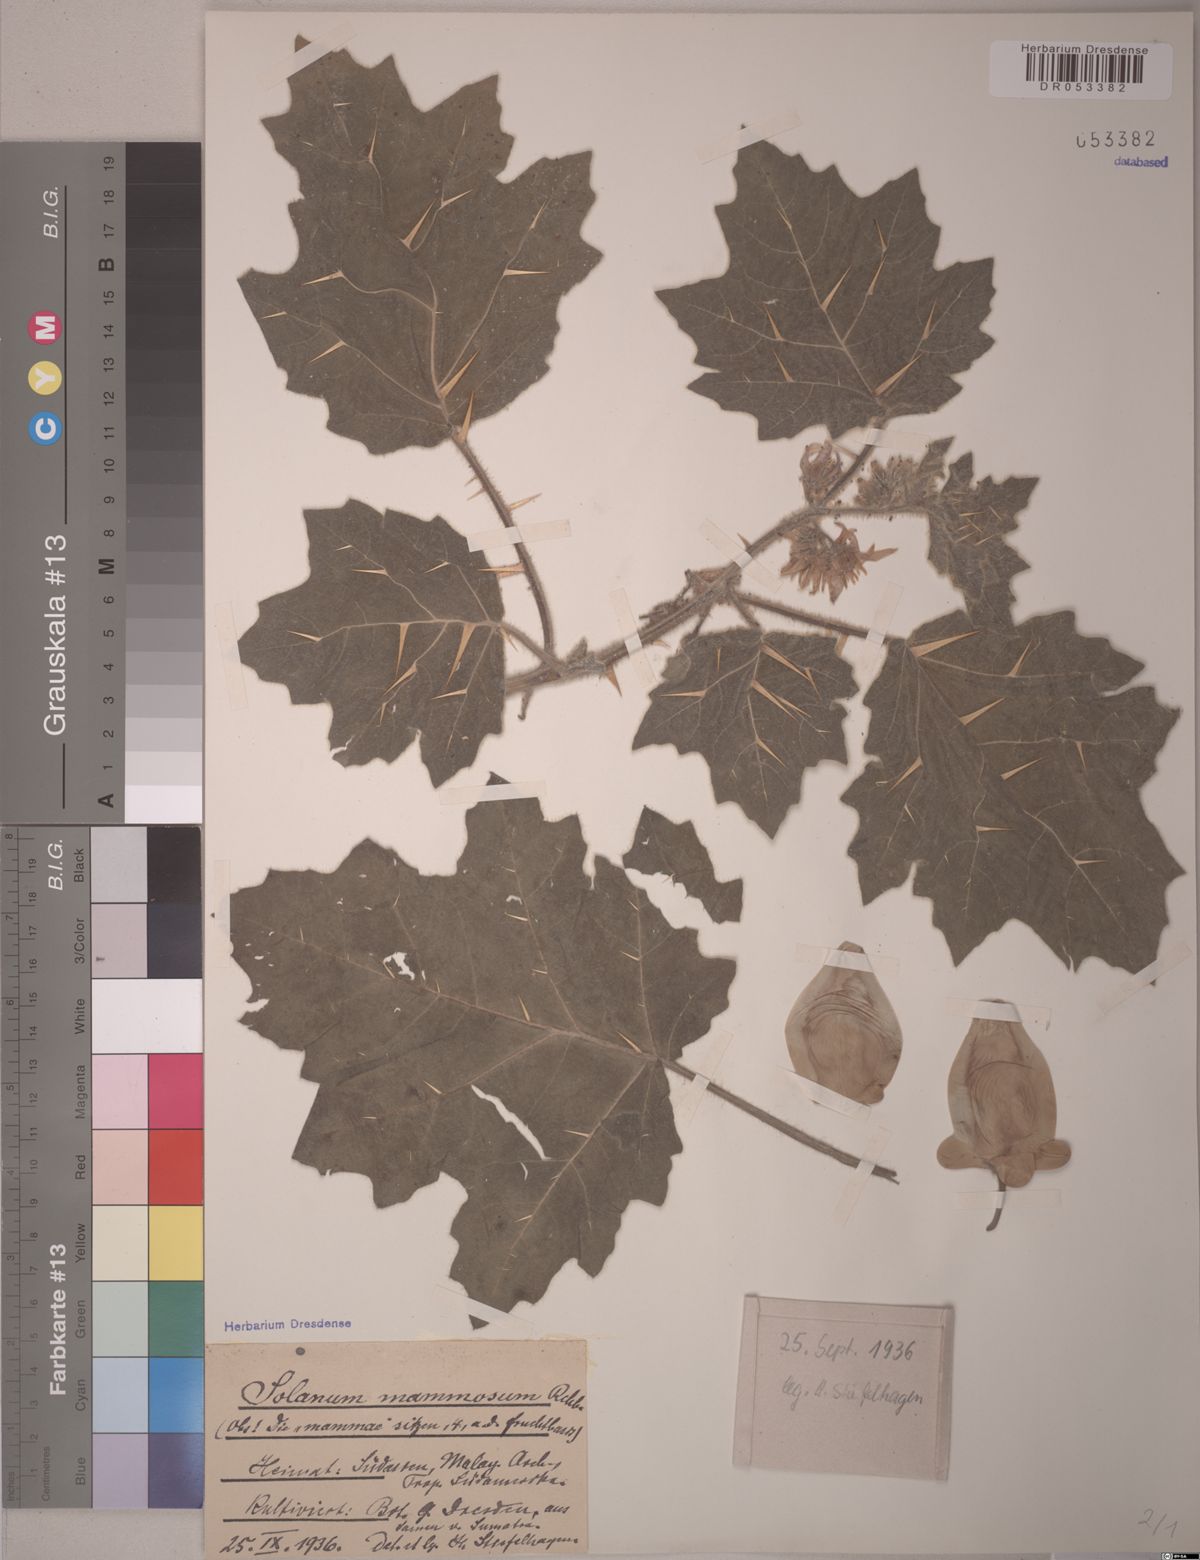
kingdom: Plantae
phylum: Tracheophyta
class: Magnoliopsida
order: Solanales
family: Solanaceae
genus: Solanum
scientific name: Solanum mammosum
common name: Nipple fruit
